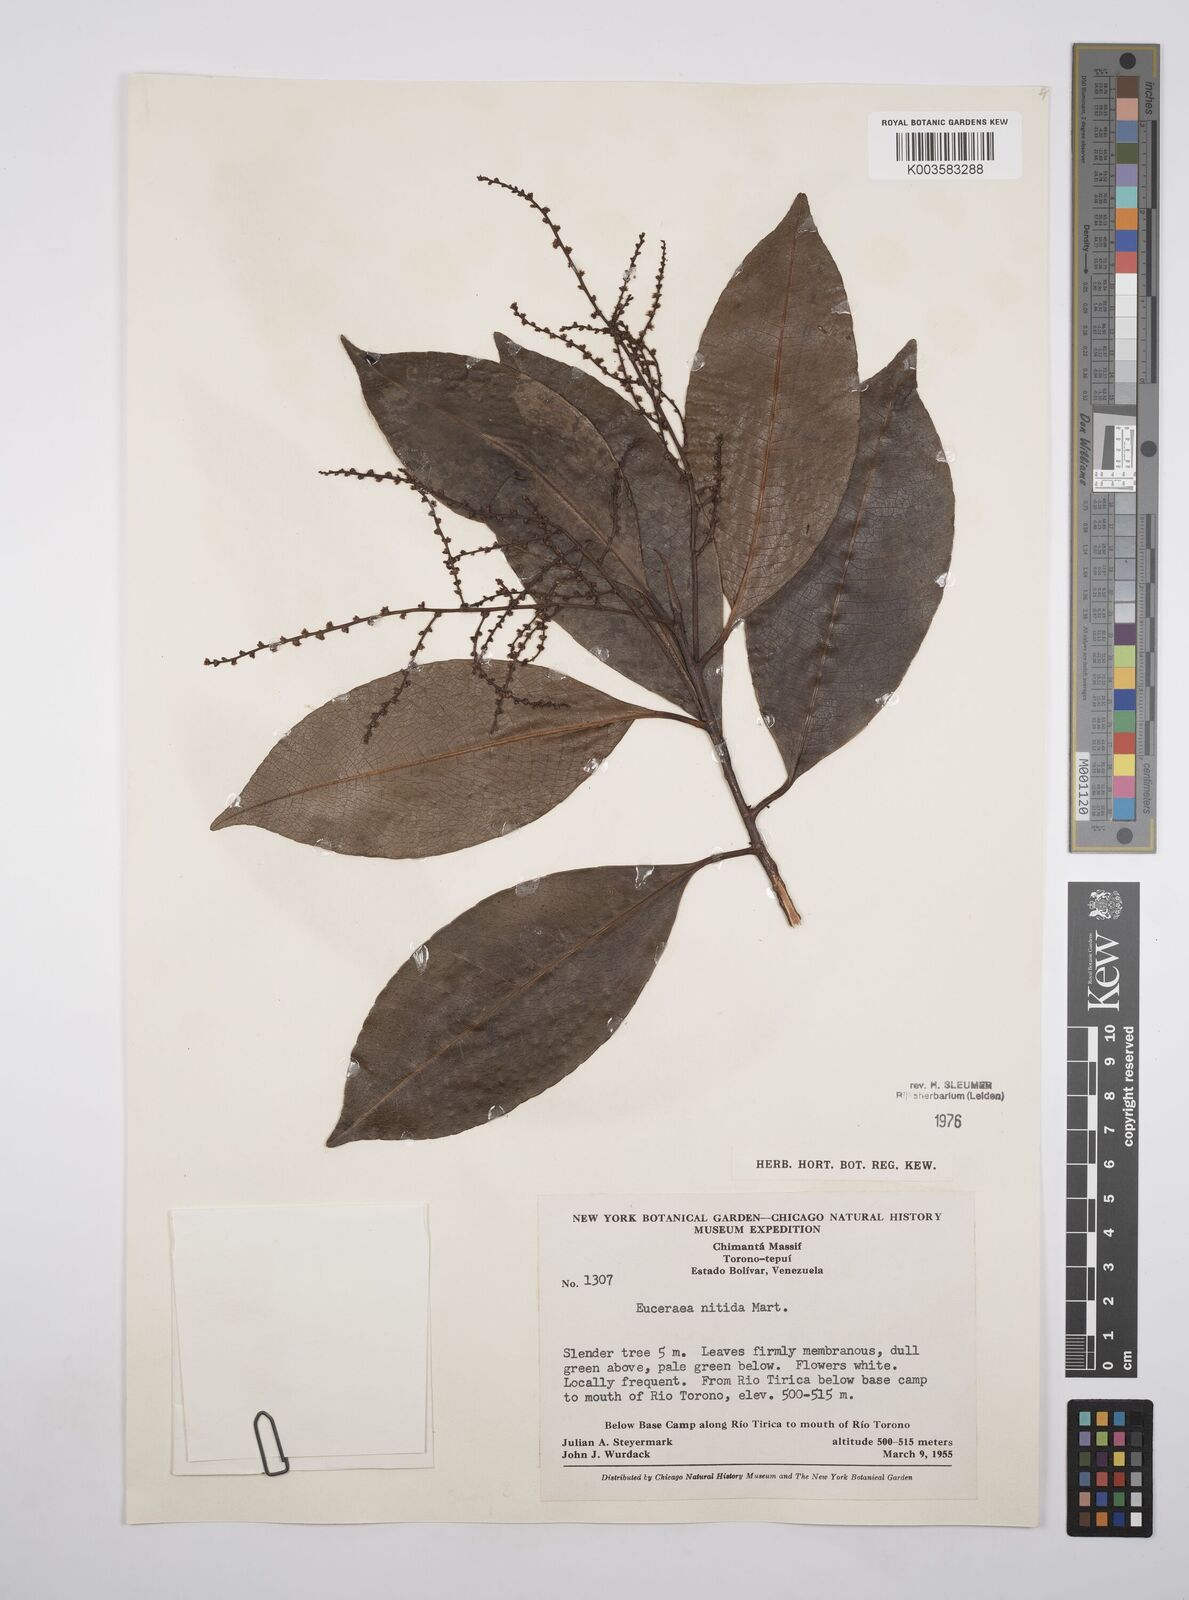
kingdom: Plantae
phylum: Tracheophyta
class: Magnoliopsida
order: Malpighiales
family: Salicaceae
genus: Casearia
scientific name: Casearia euceraea
